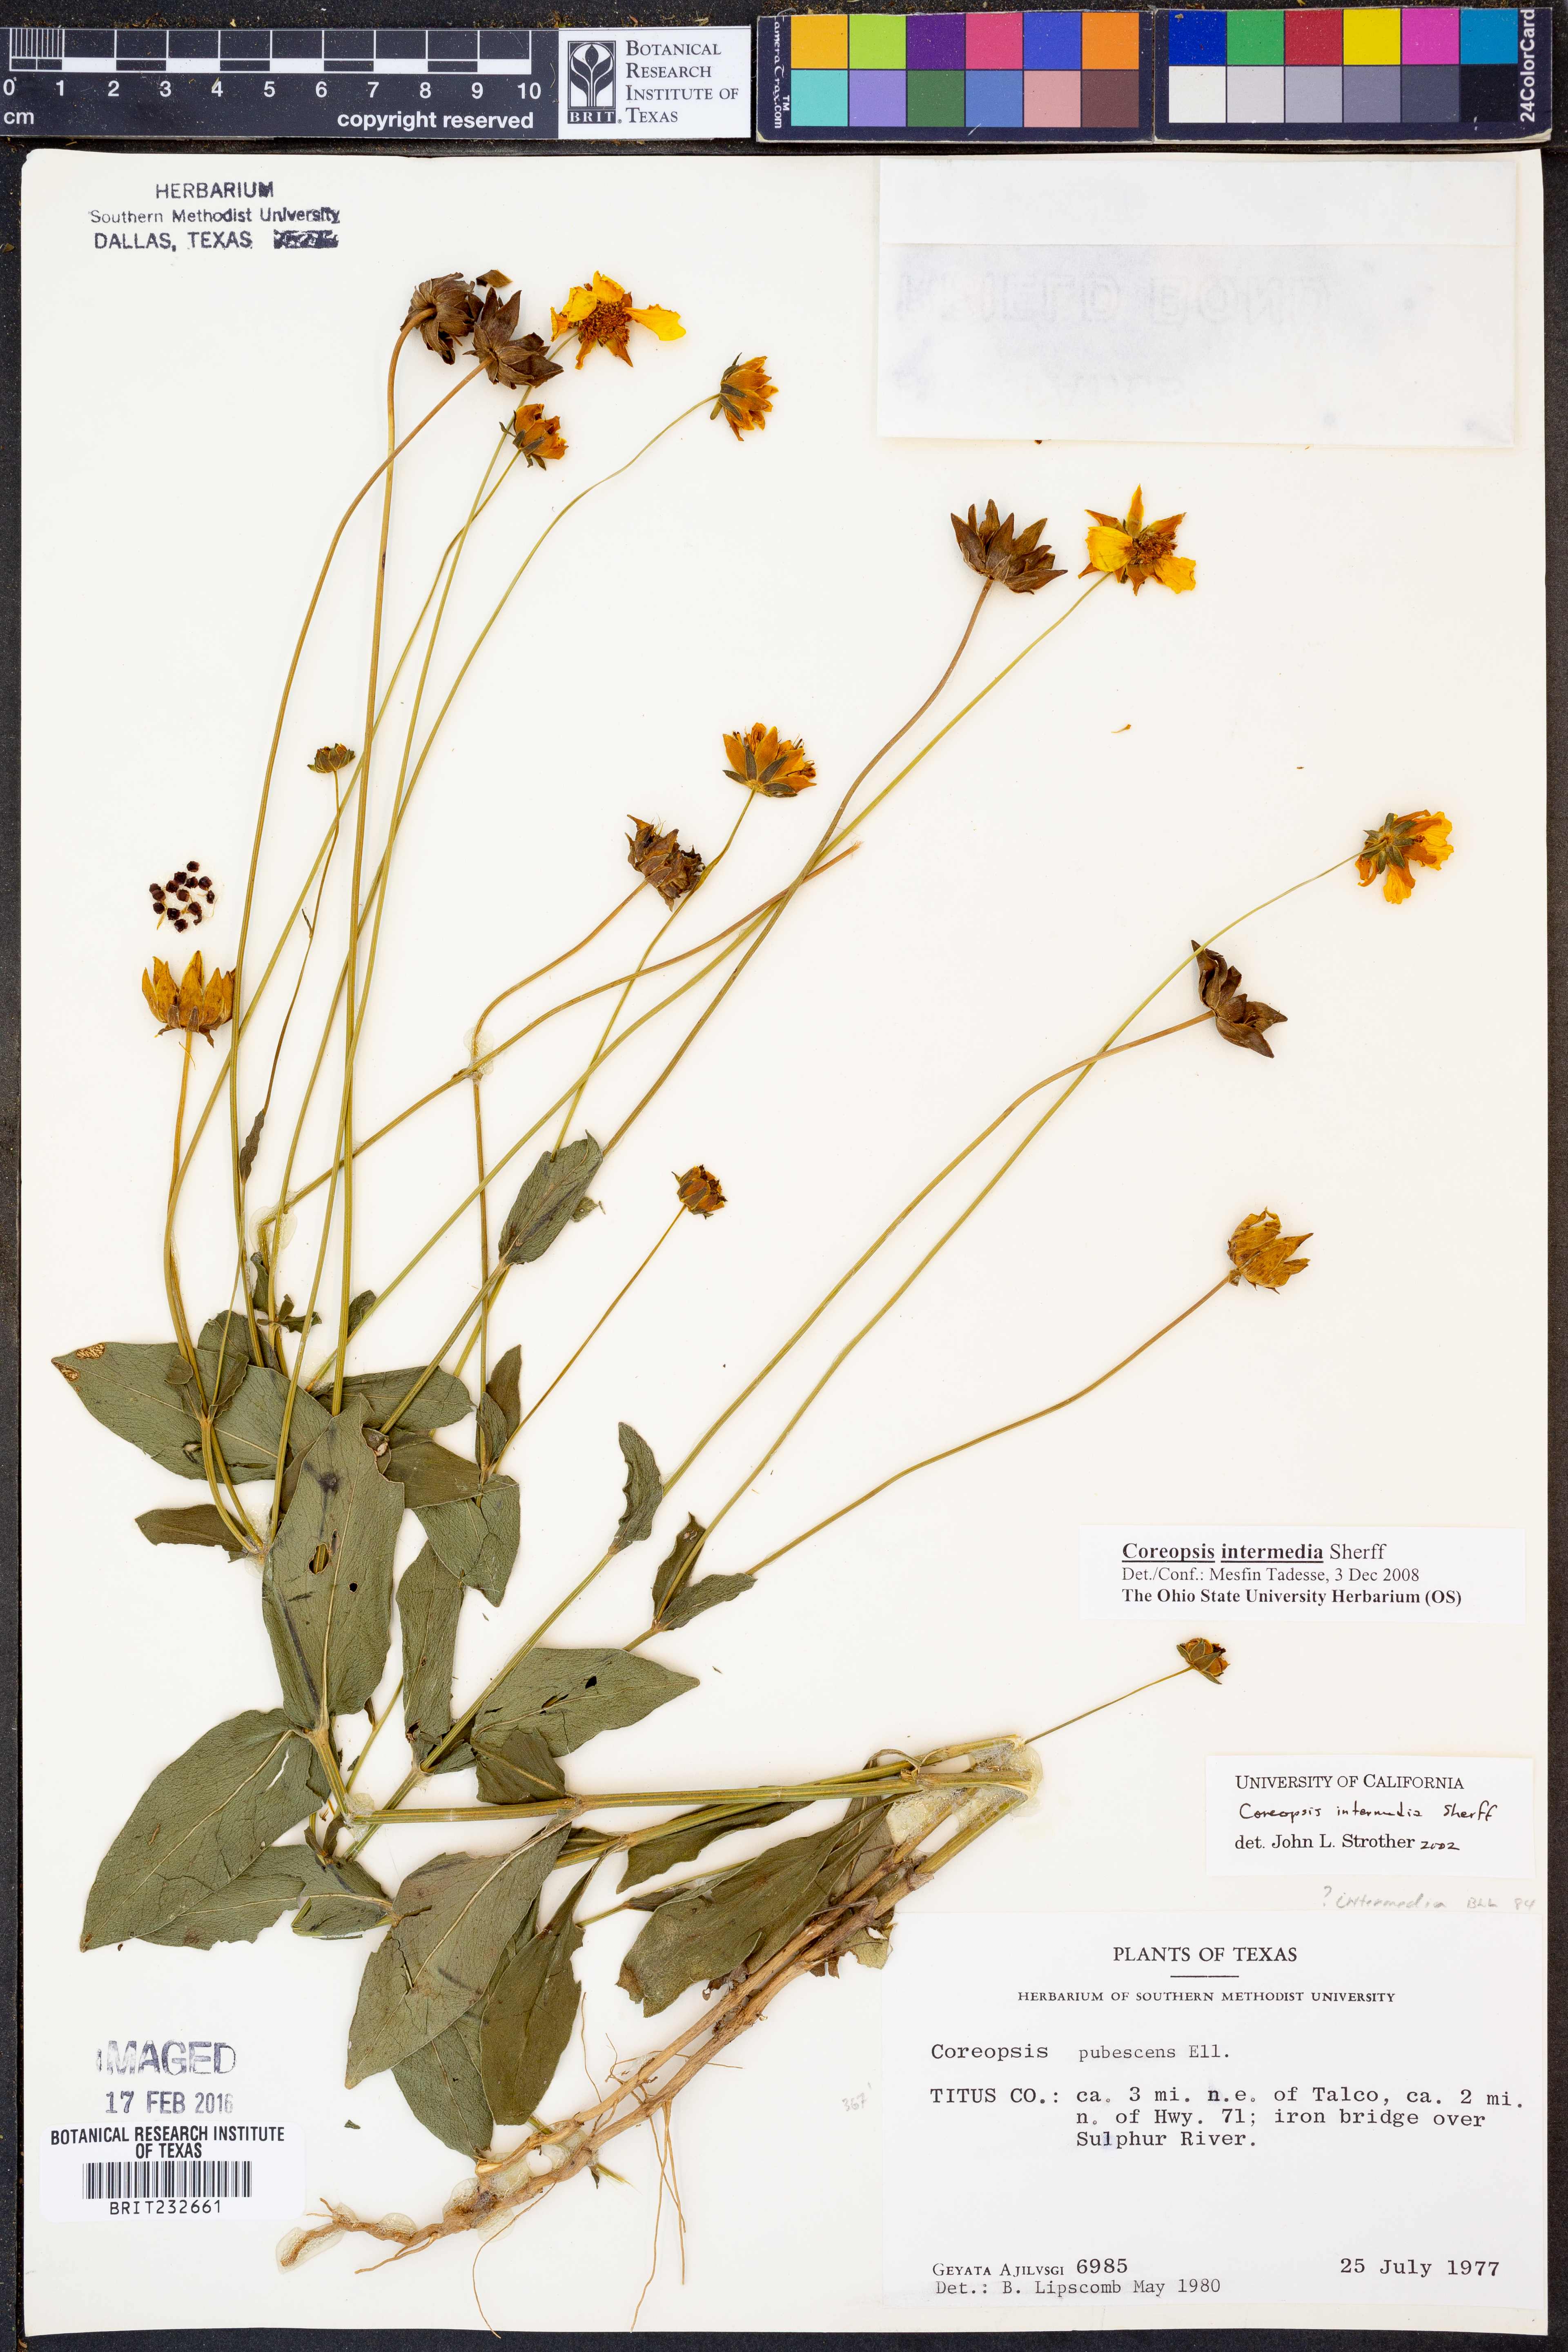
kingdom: Plantae
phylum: Tracheophyta
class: Magnoliopsida
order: Asterales
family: Asteraceae
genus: Coreopsis
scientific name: Coreopsis intermedia
